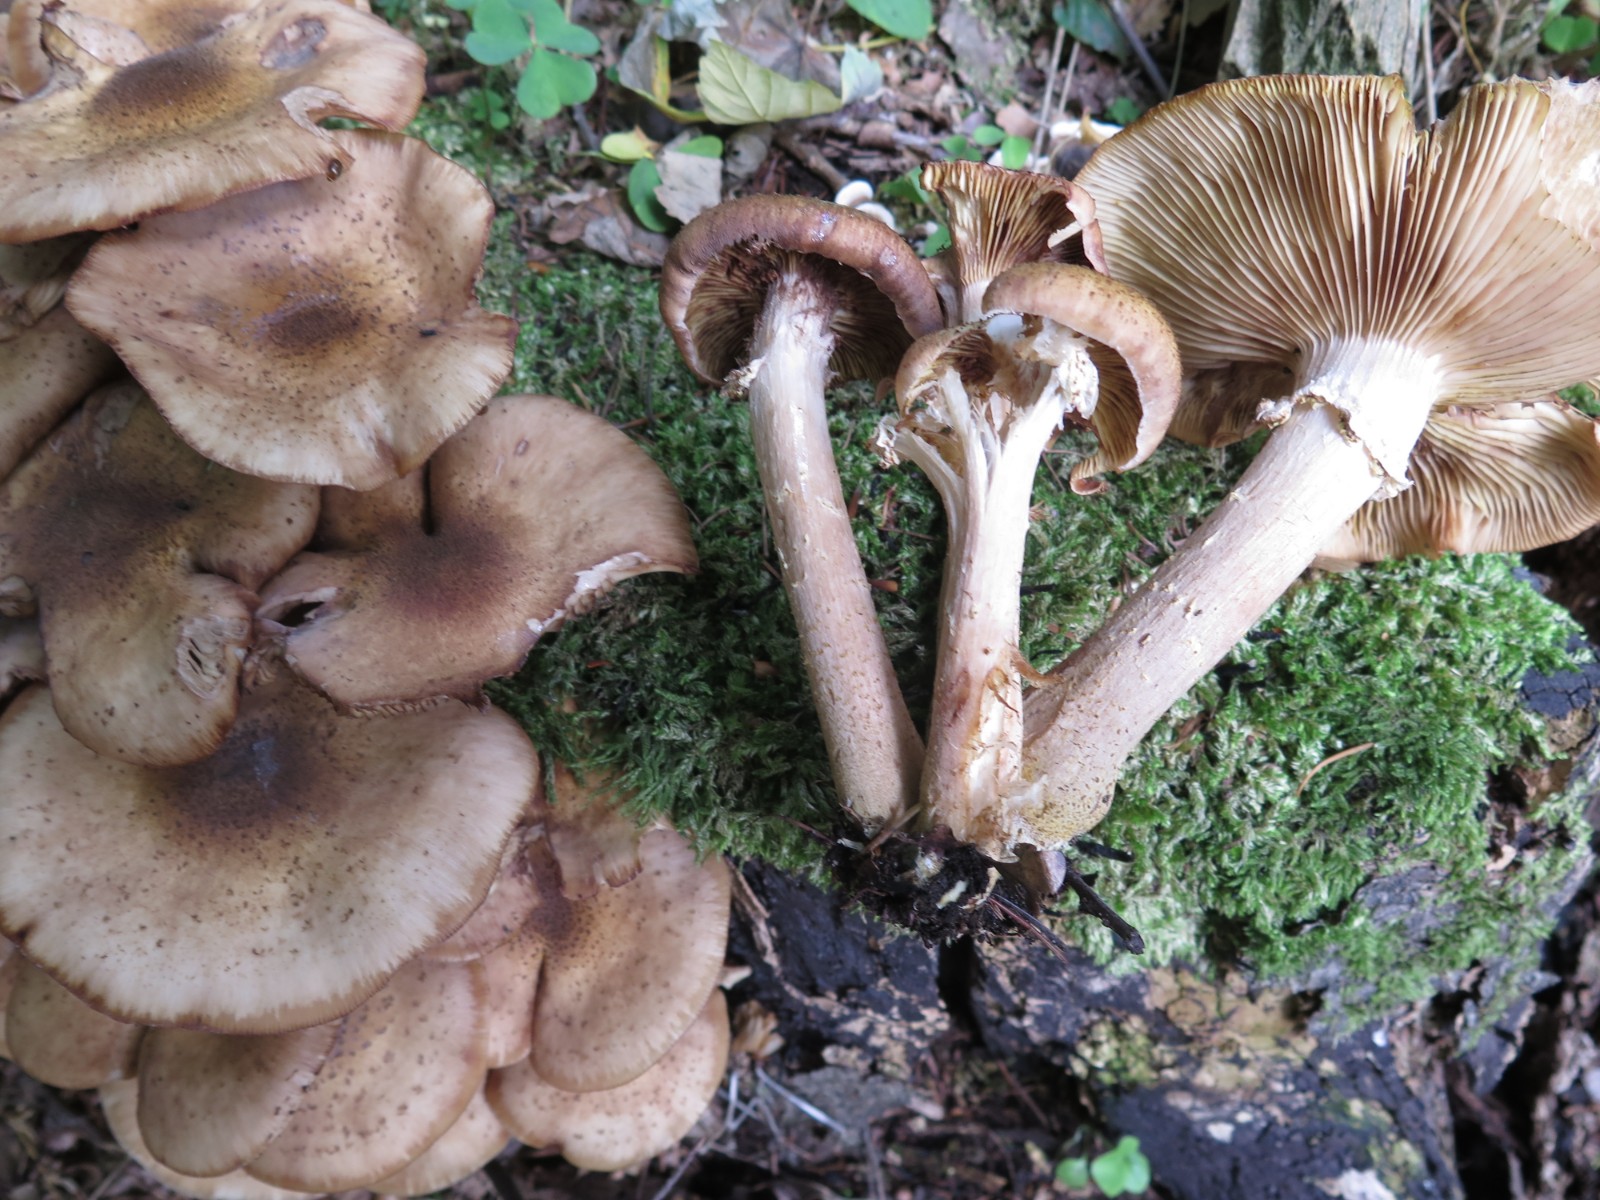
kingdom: Fungi
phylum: Basidiomycota
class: Agaricomycetes
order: Agaricales
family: Physalacriaceae
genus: Armillaria
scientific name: Armillaria lutea
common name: køllestokket honningsvamp
